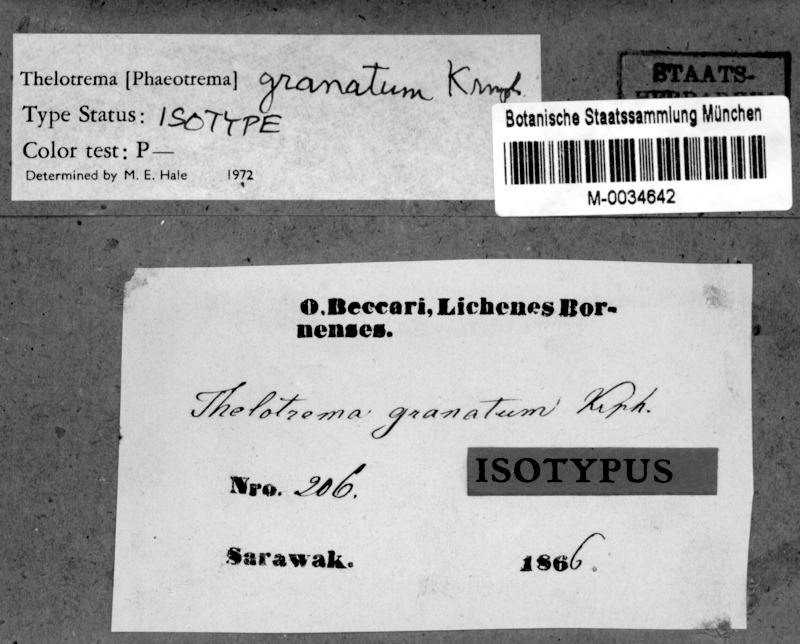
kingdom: Fungi
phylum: Ascomycota
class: Lecanoromycetes
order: Ostropales
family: Graphidaceae
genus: Thelotrema
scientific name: Thelotrema granatum
